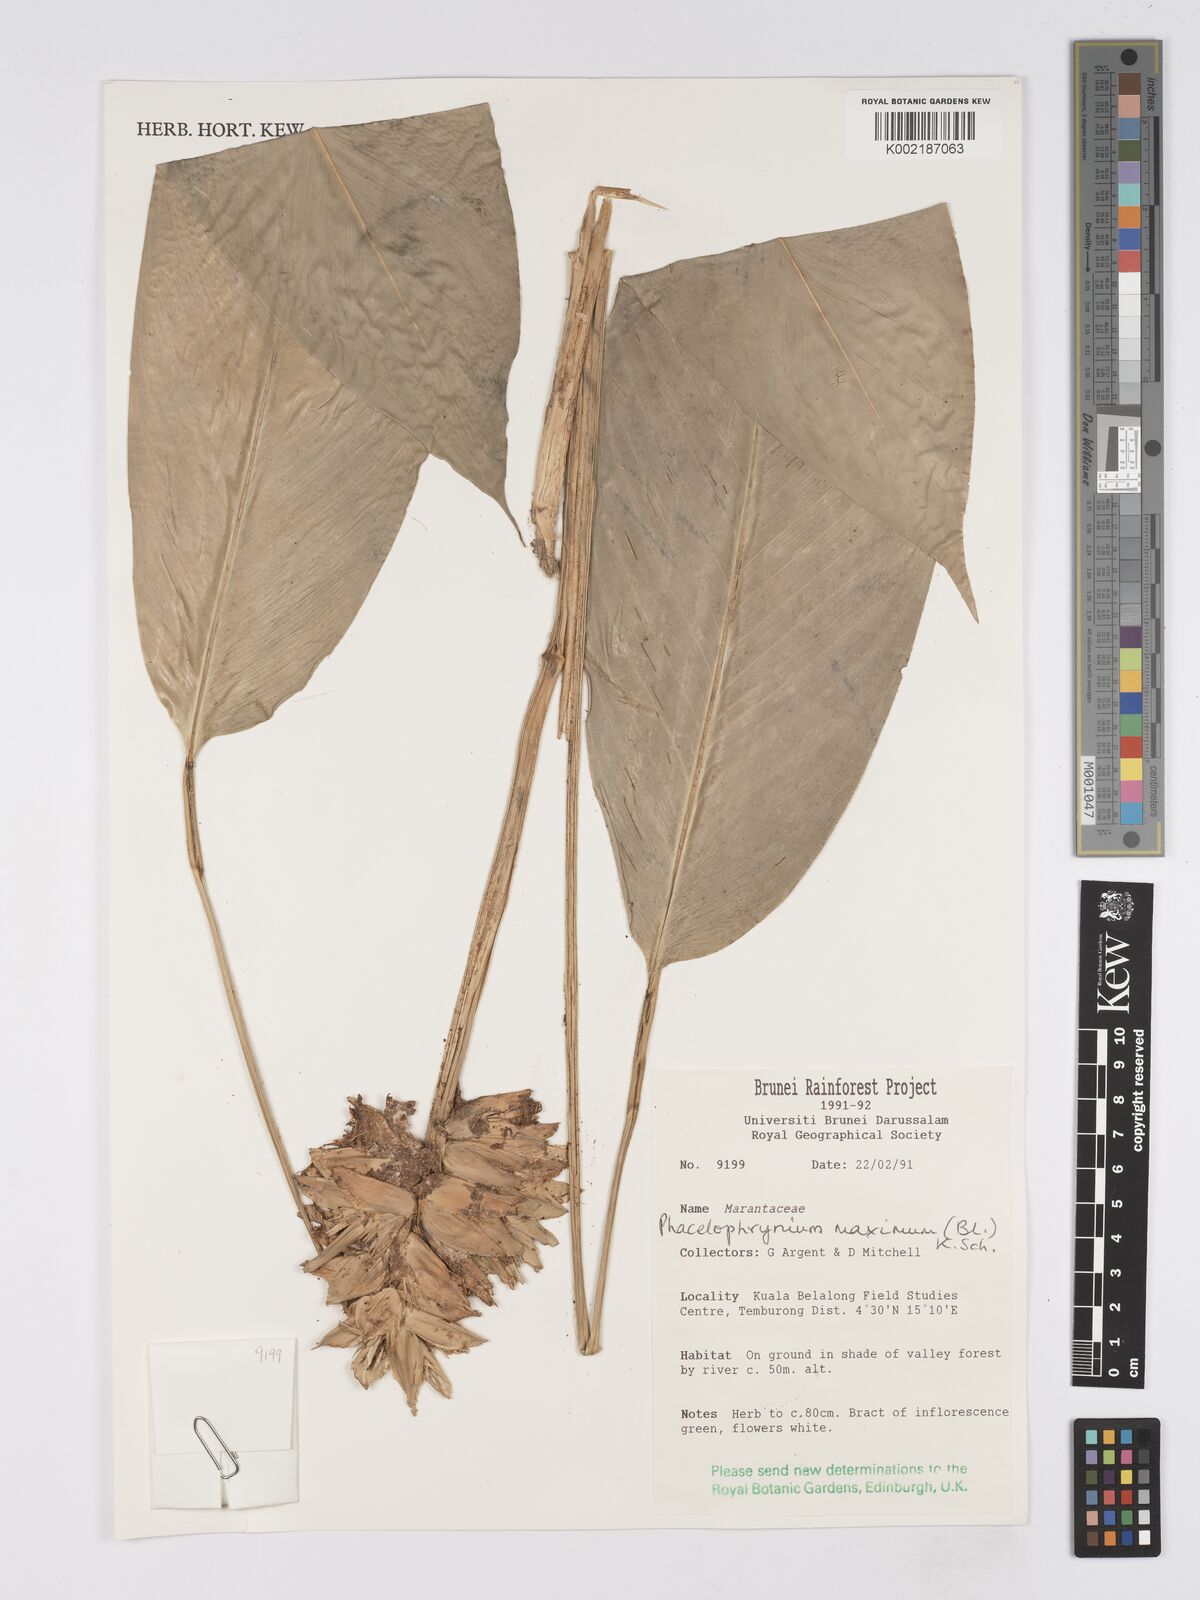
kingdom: Plantae
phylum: Tracheophyta
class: Liliopsida
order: Zingiberales
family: Marantaceae
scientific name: Marantaceae
